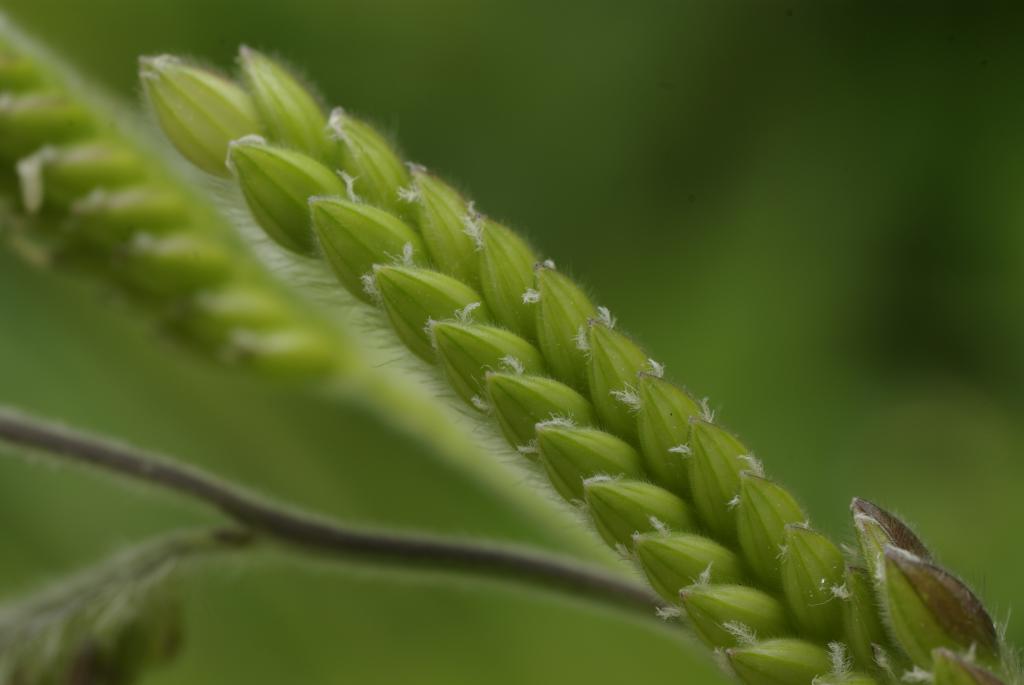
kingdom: Plantae
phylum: Tracheophyta
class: Liliopsida
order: Poales
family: Poaceae
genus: Eriochloa
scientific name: Eriochloa villosa
